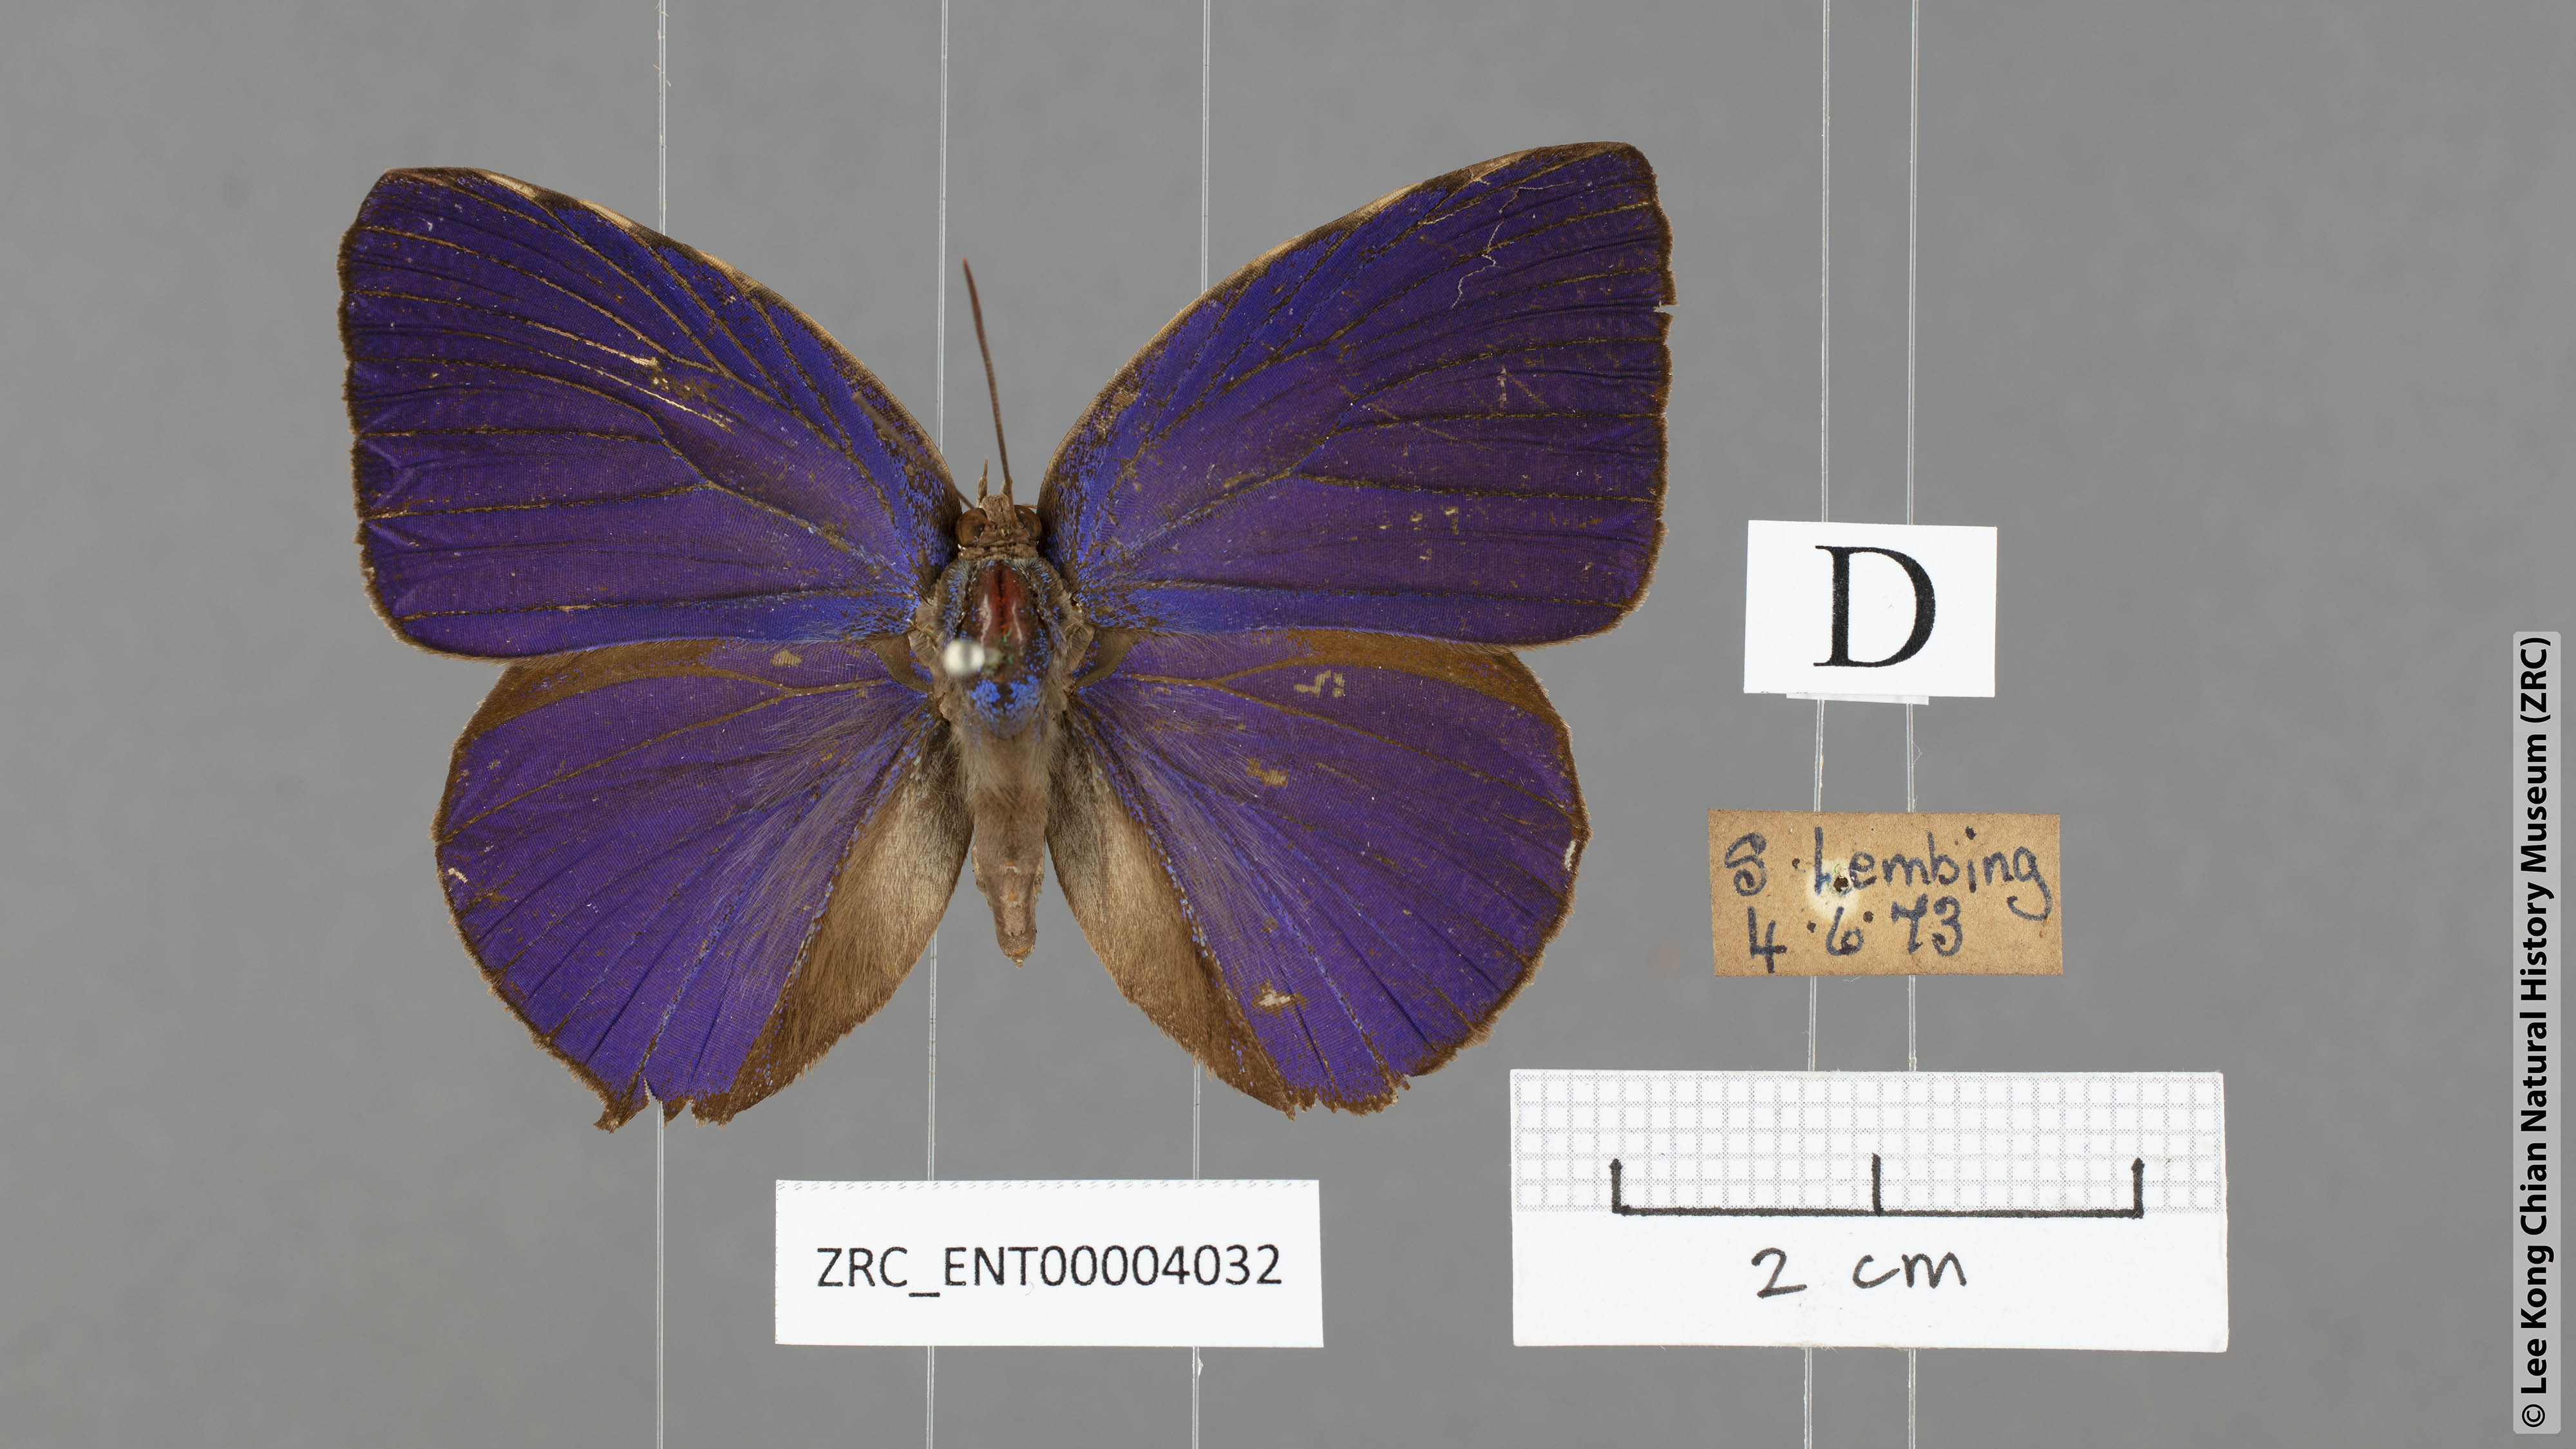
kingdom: Animalia
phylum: Arthropoda
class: Insecta
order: Lepidoptera
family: Lycaenidae
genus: Arhopala
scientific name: Arhopala centaurus
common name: Dull oak-blue
